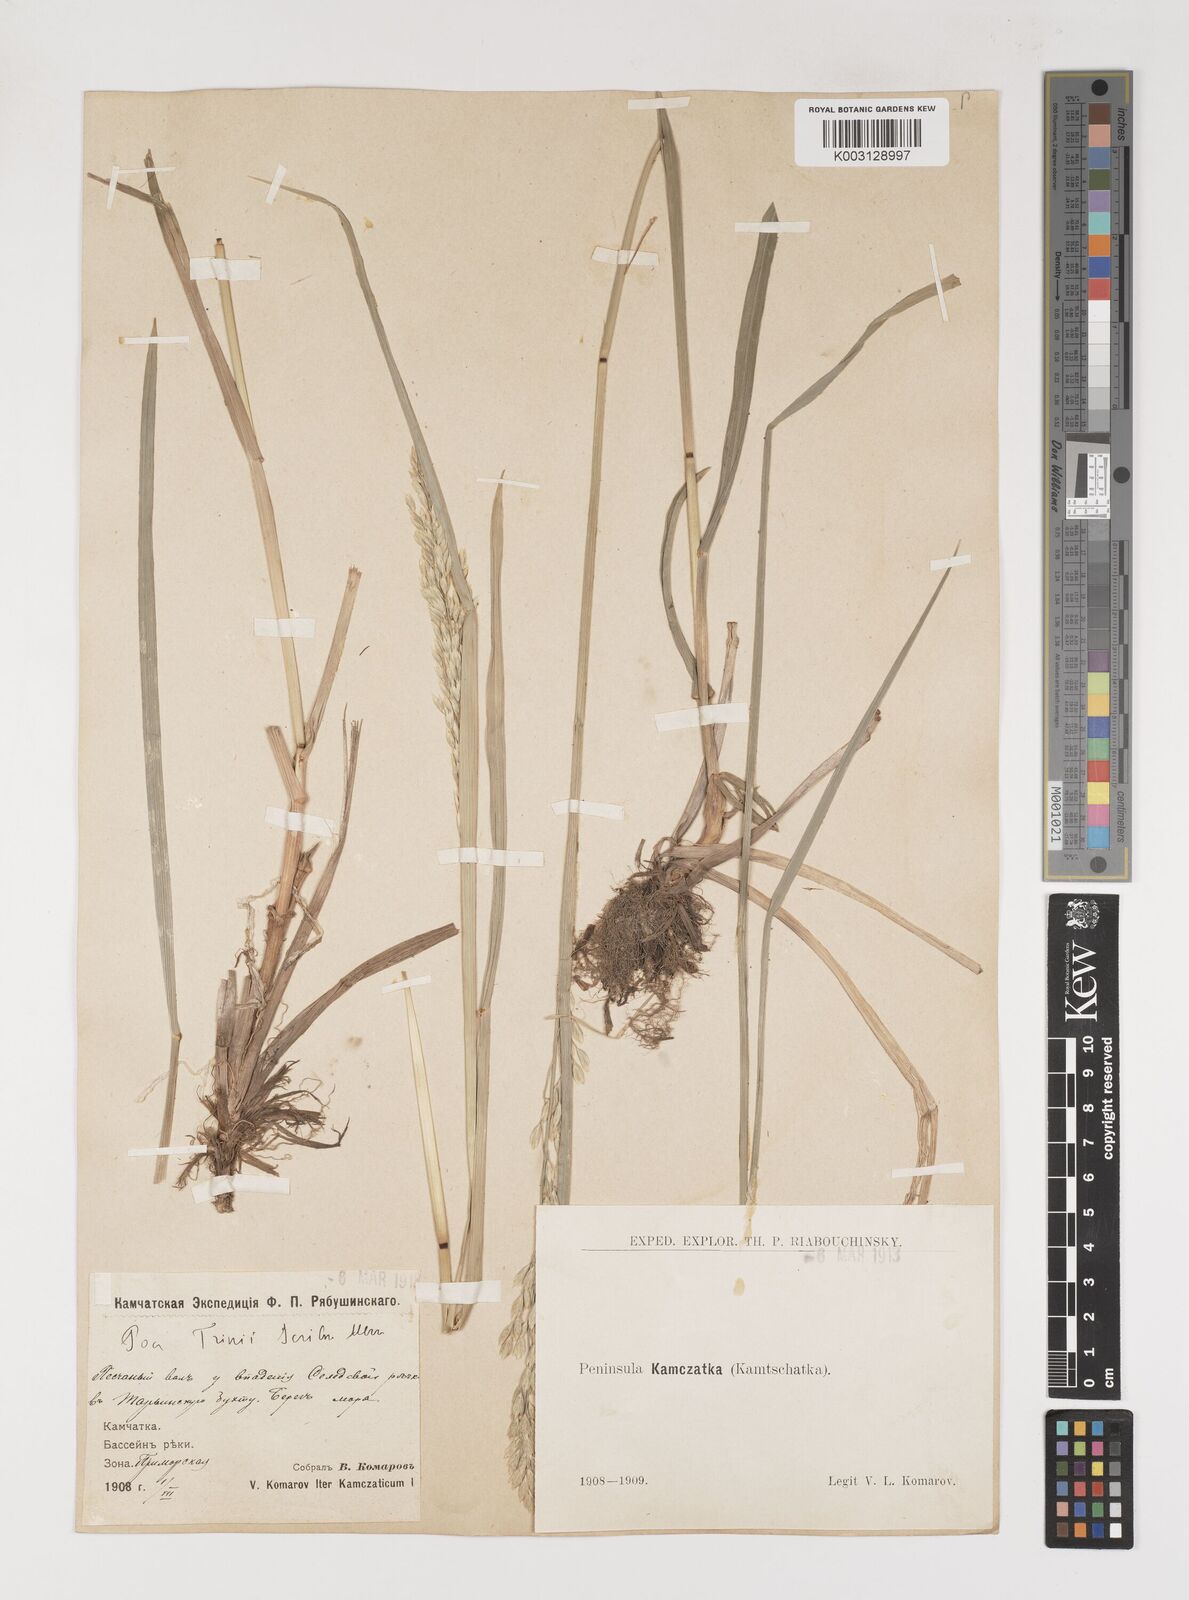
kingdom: Plantae
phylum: Tracheophyta
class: Liliopsida
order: Poales
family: Poaceae
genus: Arctopoa
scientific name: Arctopoa eminens
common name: Eminent bluegrass
